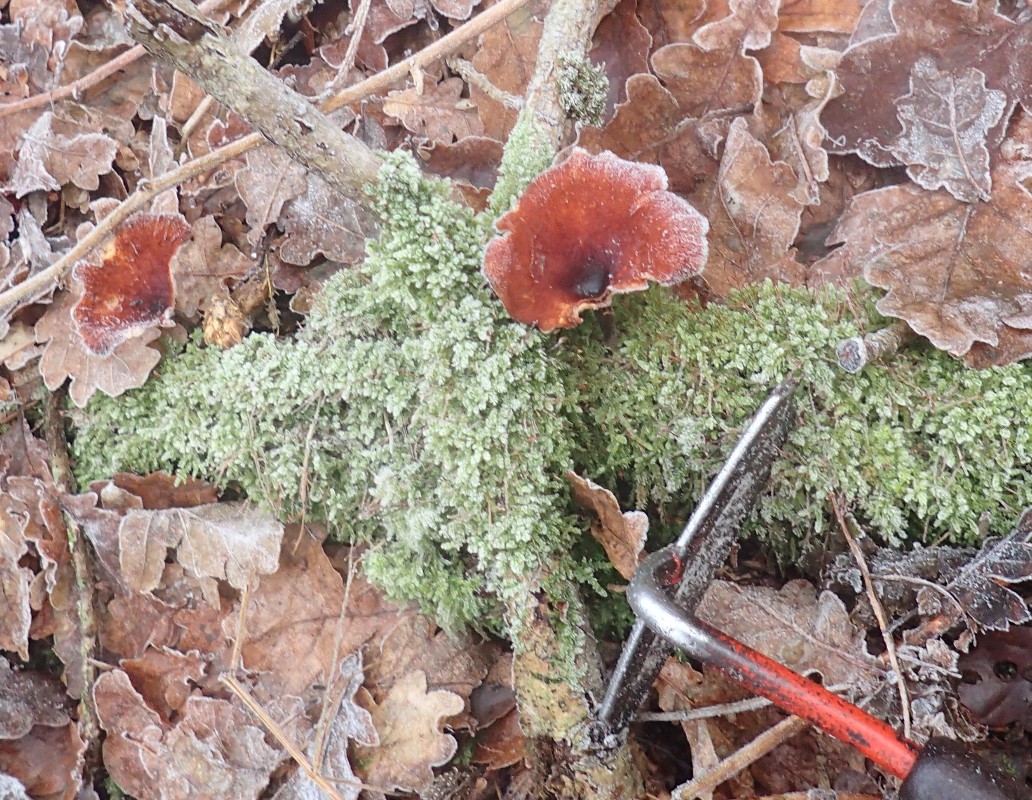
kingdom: Fungi
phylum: Basidiomycota
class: Agaricomycetes
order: Polyporales
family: Polyporaceae
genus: Picipes
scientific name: Picipes tubaeformis
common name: trompet-stilkporesvamp
